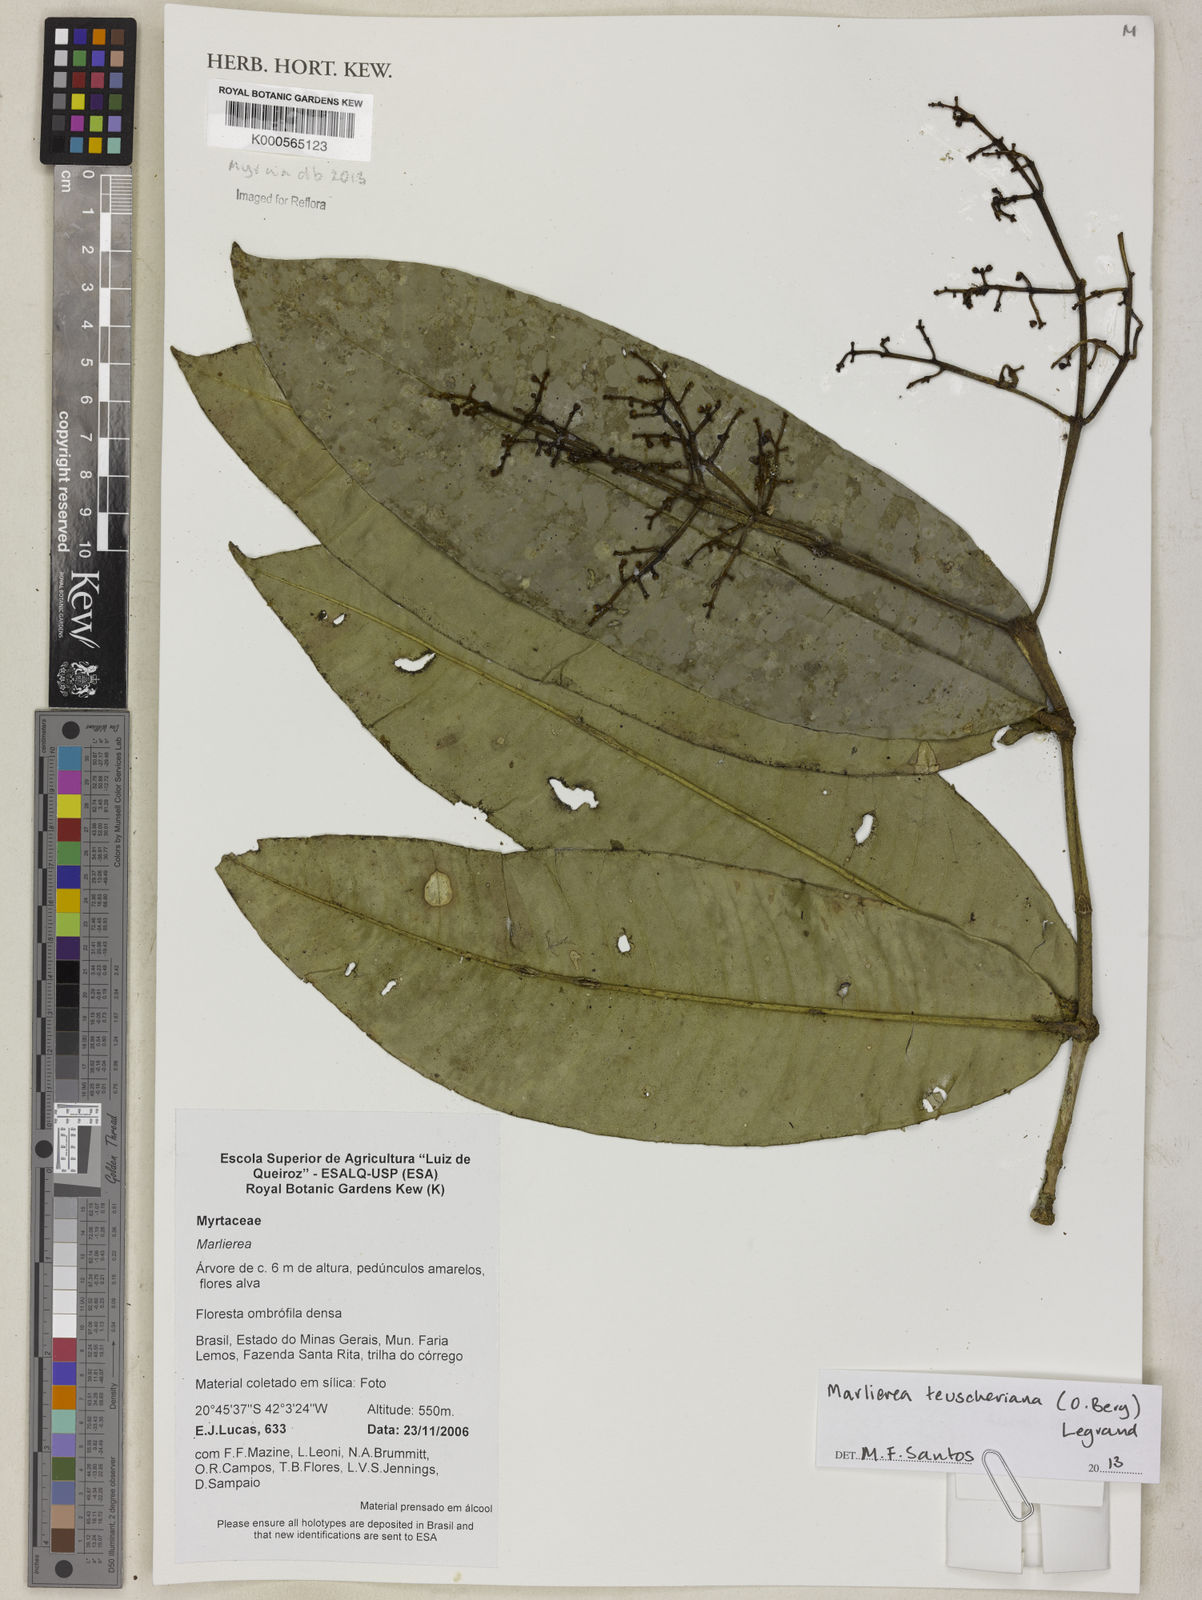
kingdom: Plantae
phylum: Tracheophyta
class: Magnoliopsida
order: Myrtales
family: Myrtaceae
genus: Myrcia
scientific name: Myrcia teuscheriana
